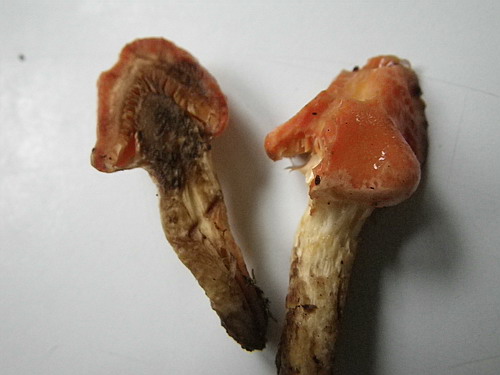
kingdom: Fungi
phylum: Basidiomycota
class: Agaricomycetes
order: Agaricales
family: Strophariaceae
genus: Pyrrhulomyces
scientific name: Pyrrhulomyces astragalinus
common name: safran-skælhat
